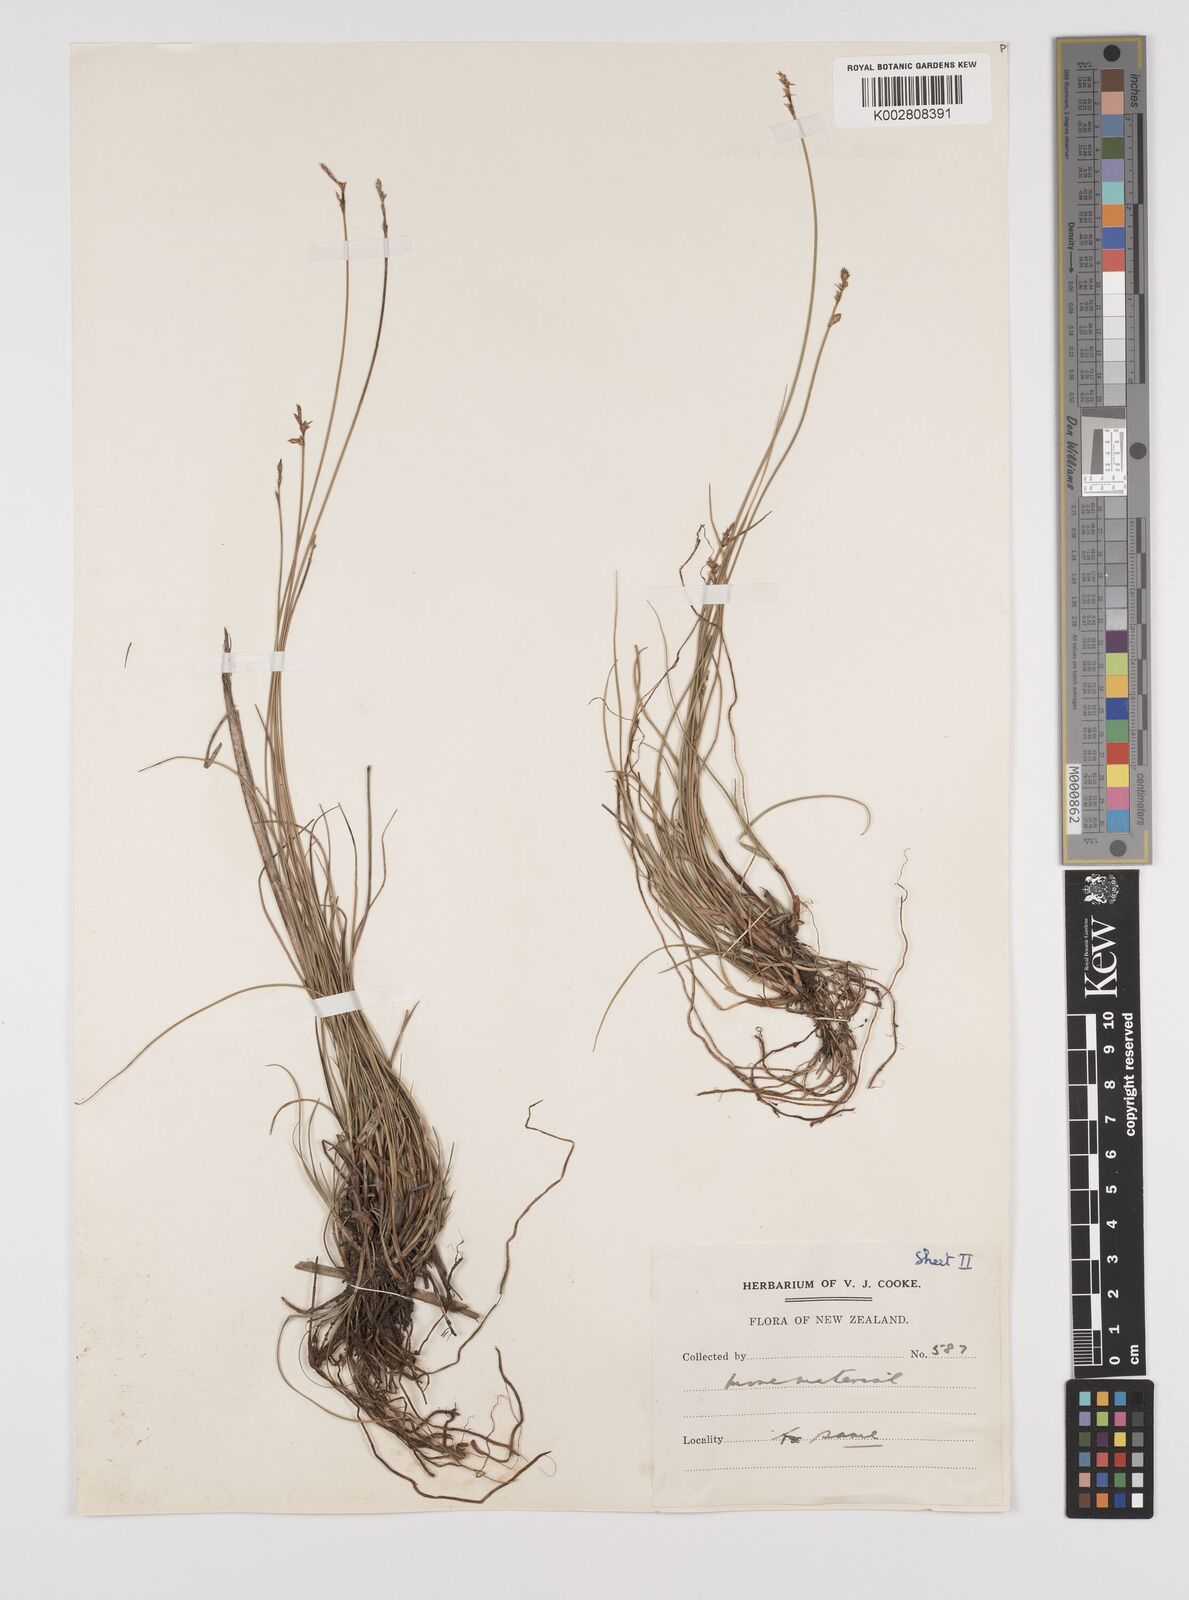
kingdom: Plantae
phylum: Tracheophyta
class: Liliopsida
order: Poales
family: Cyperaceae
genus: Carex
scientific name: Carex echinata
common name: Star sedge
